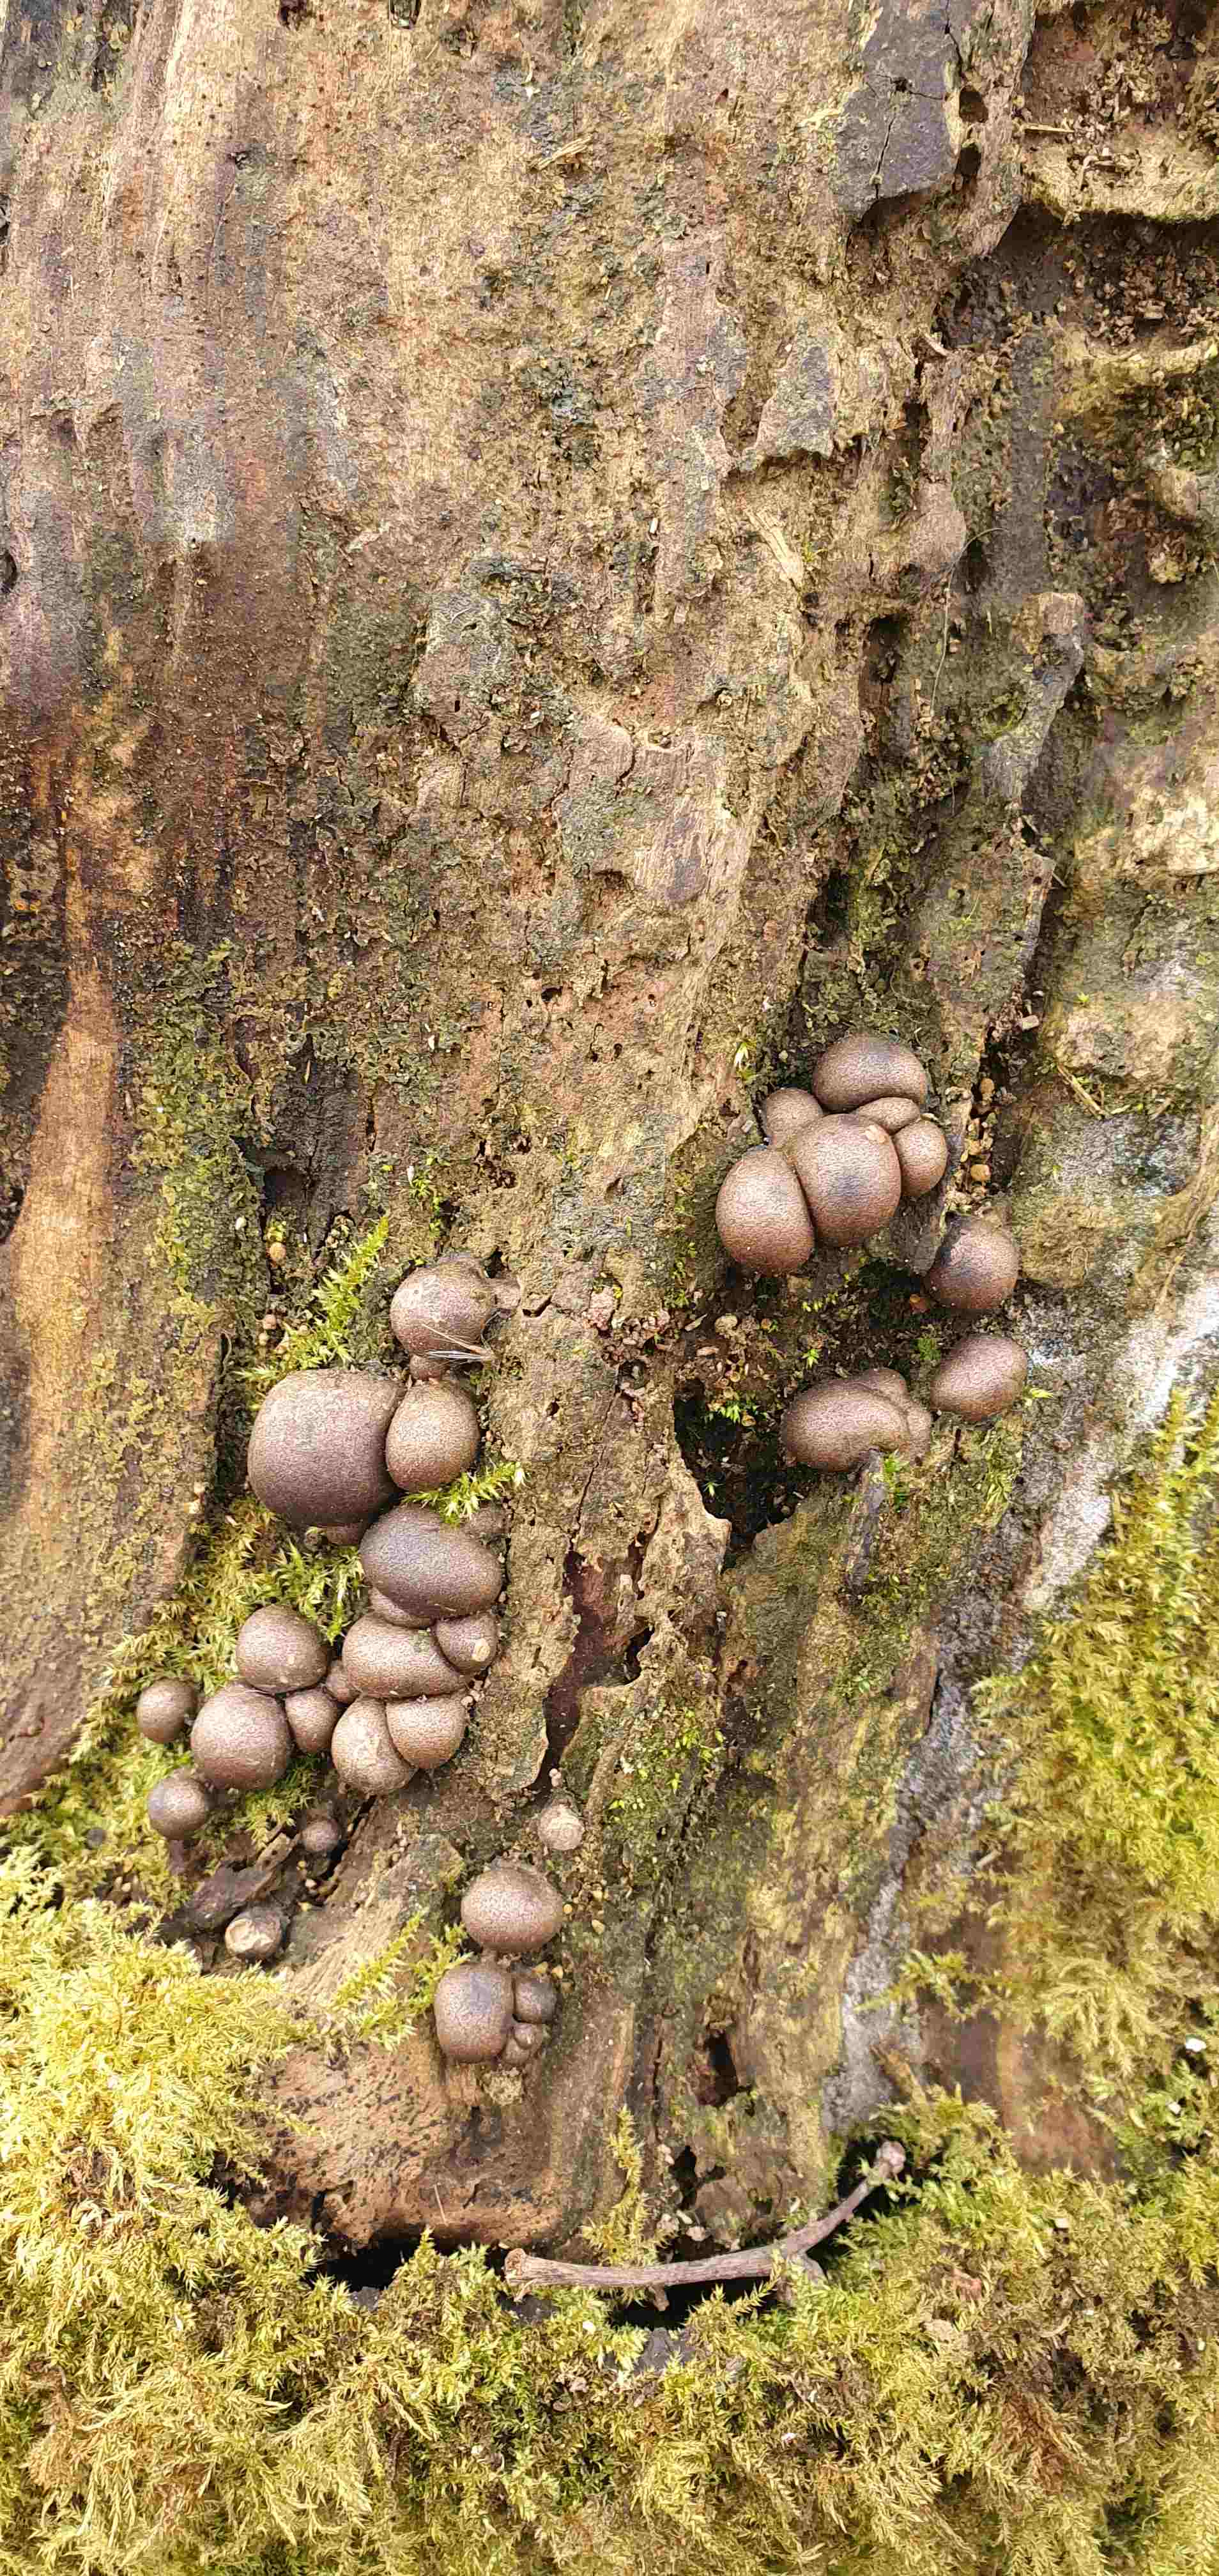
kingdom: Protozoa
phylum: Mycetozoa
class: Myxomycetes
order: Cribrariales
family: Tubiferaceae
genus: Lycogala
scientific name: Lycogala epidendrum
